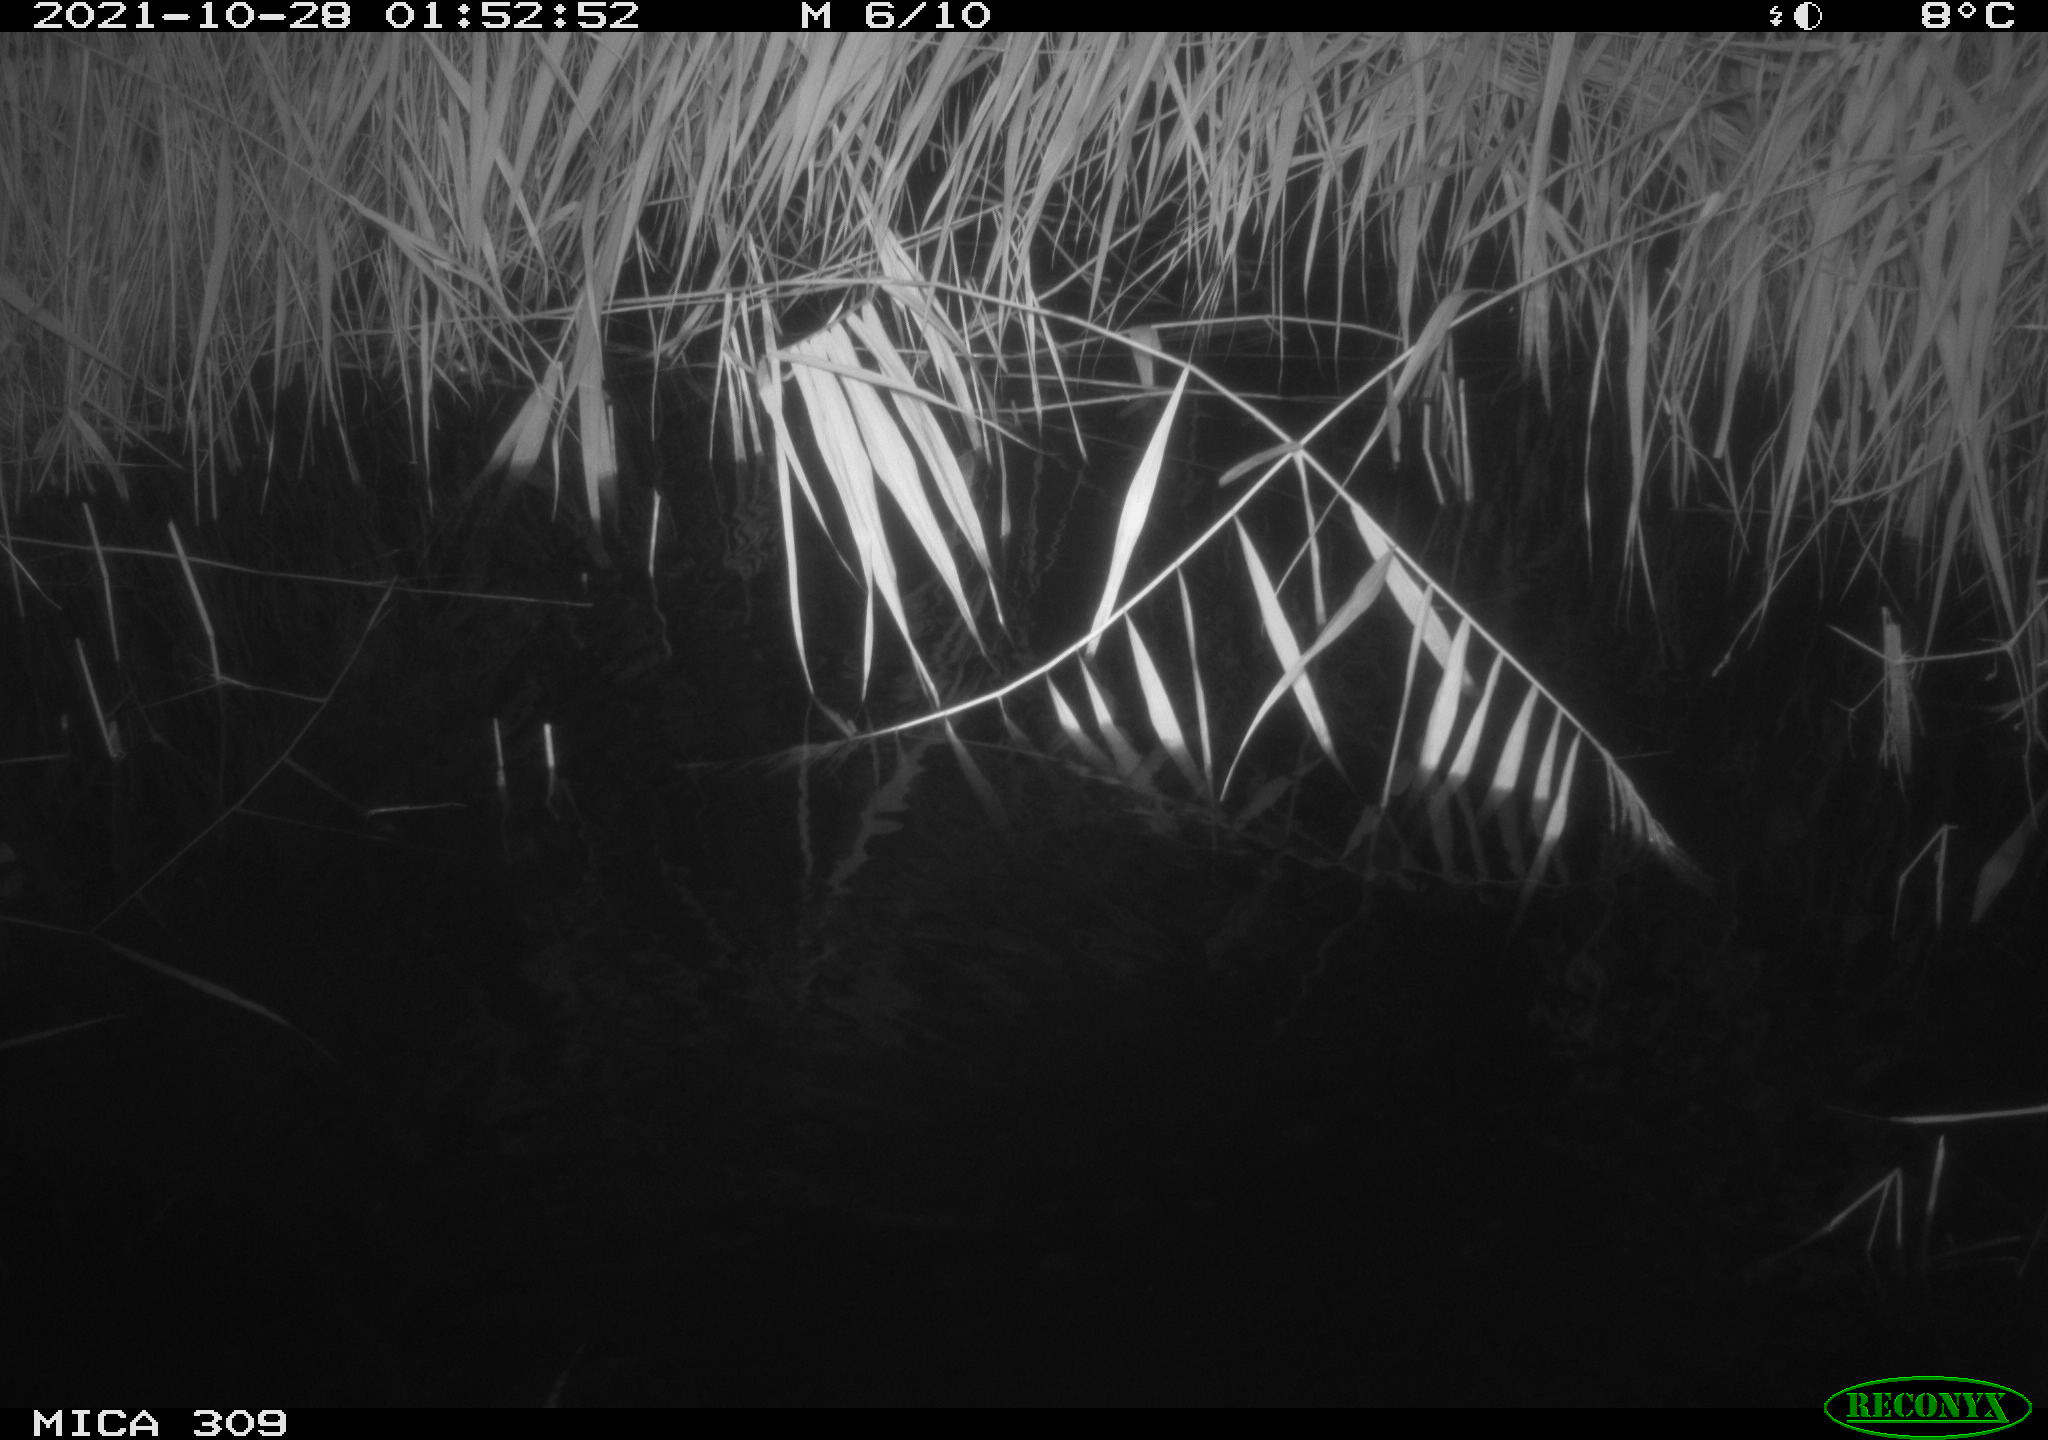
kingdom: Animalia
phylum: Chordata
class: Mammalia
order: Rodentia
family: Muridae
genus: Rattus
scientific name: Rattus norvegicus
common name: Brown rat
